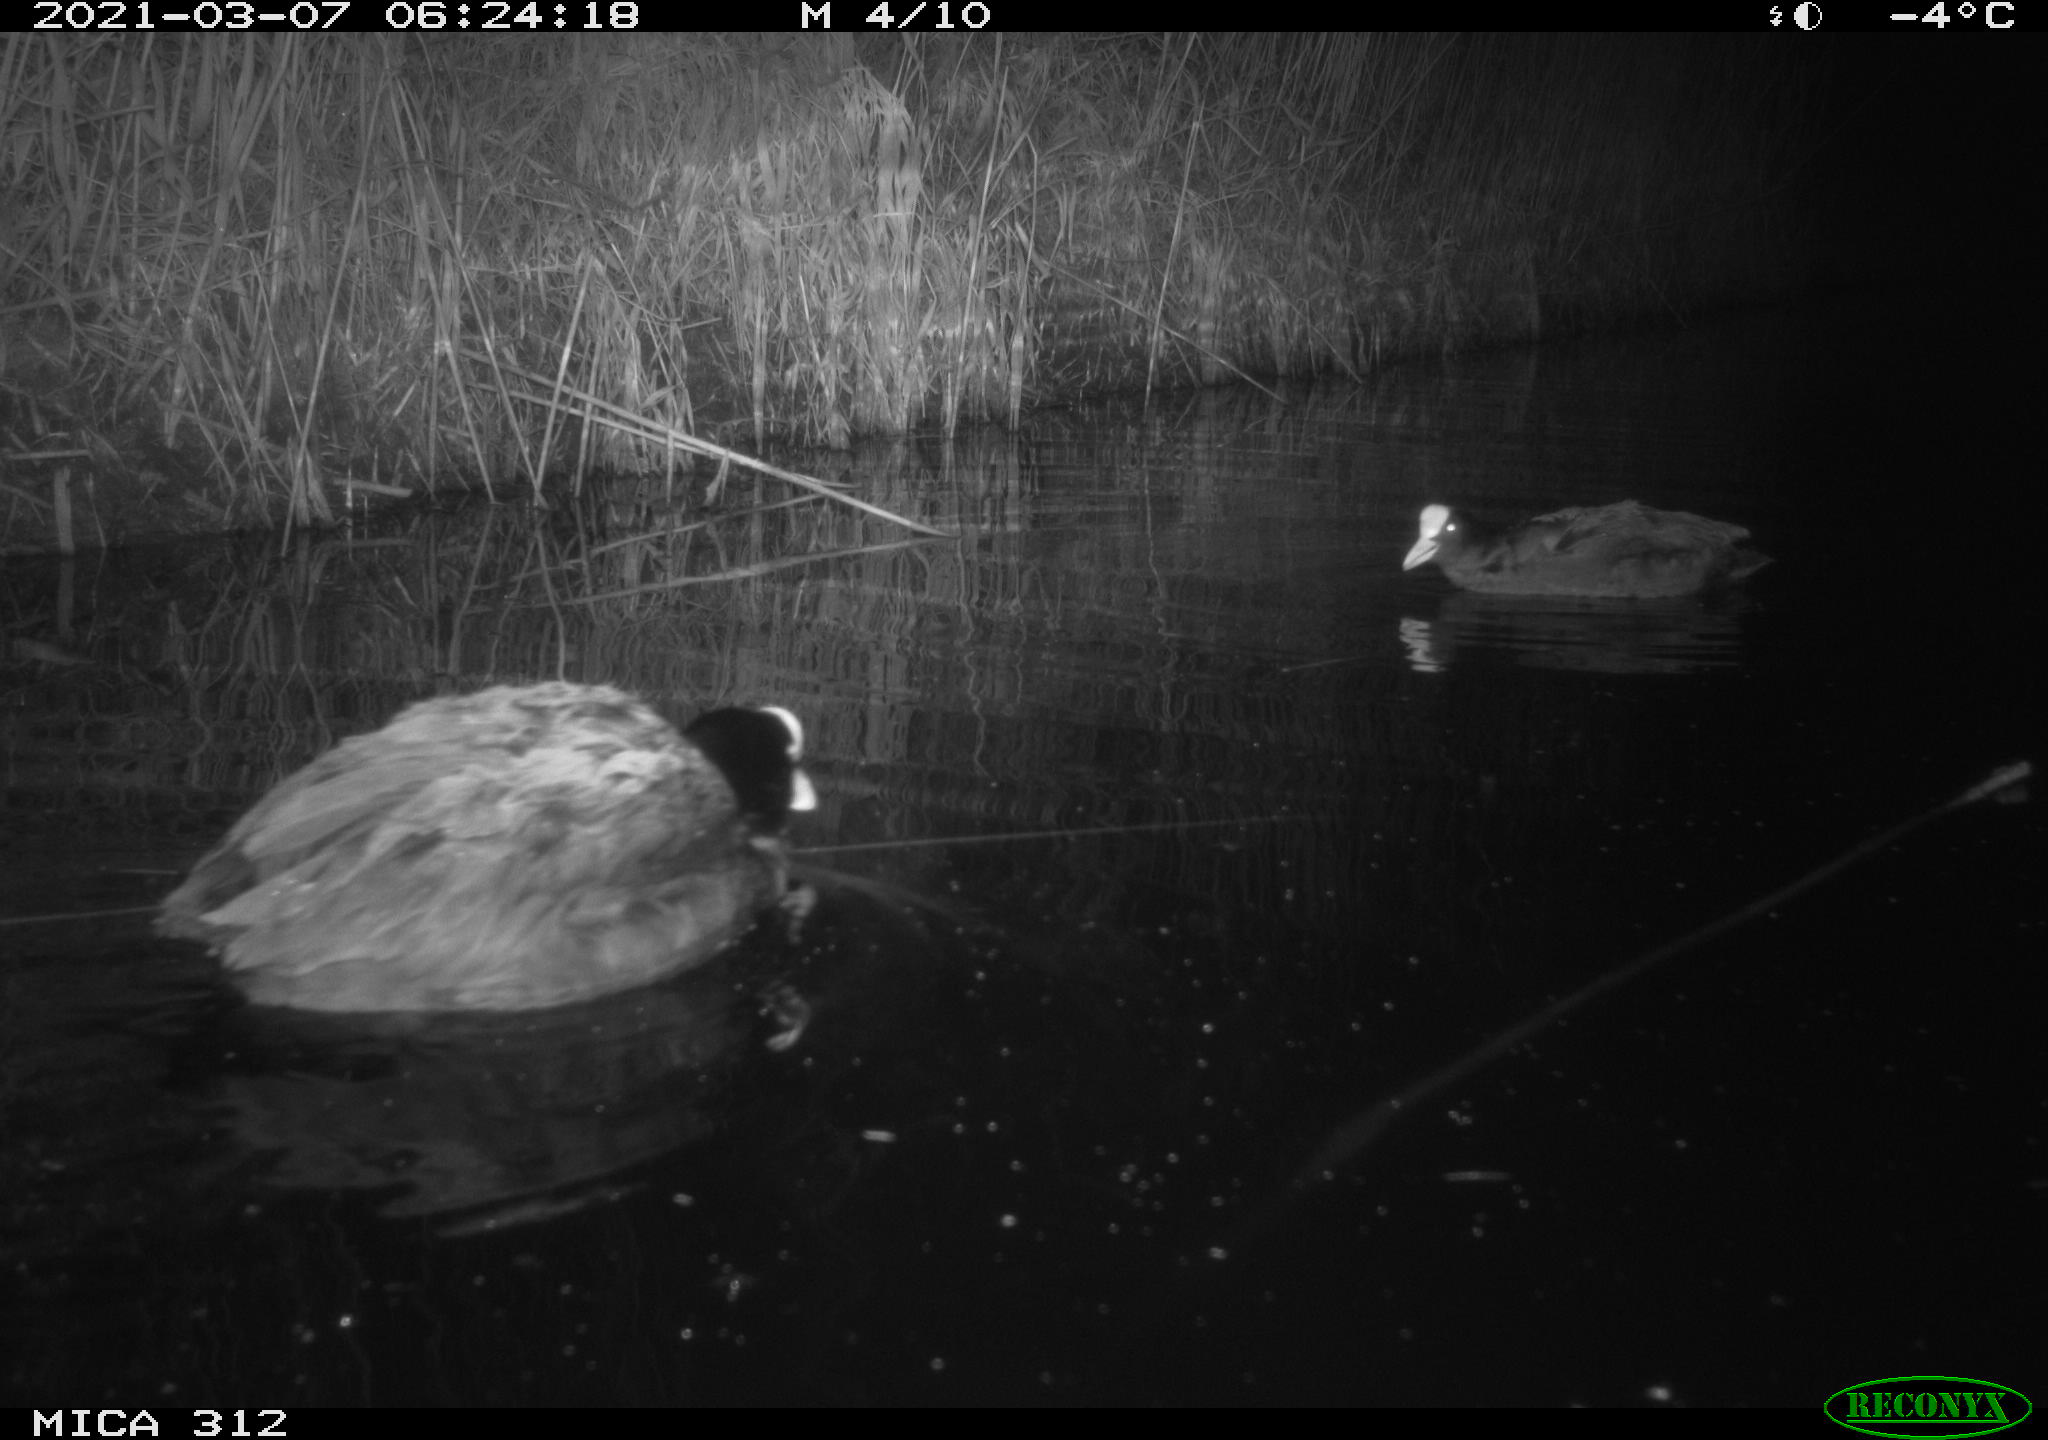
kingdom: Animalia
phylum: Chordata
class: Aves
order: Gruiformes
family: Rallidae
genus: Fulica
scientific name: Fulica atra
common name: Eurasian coot
